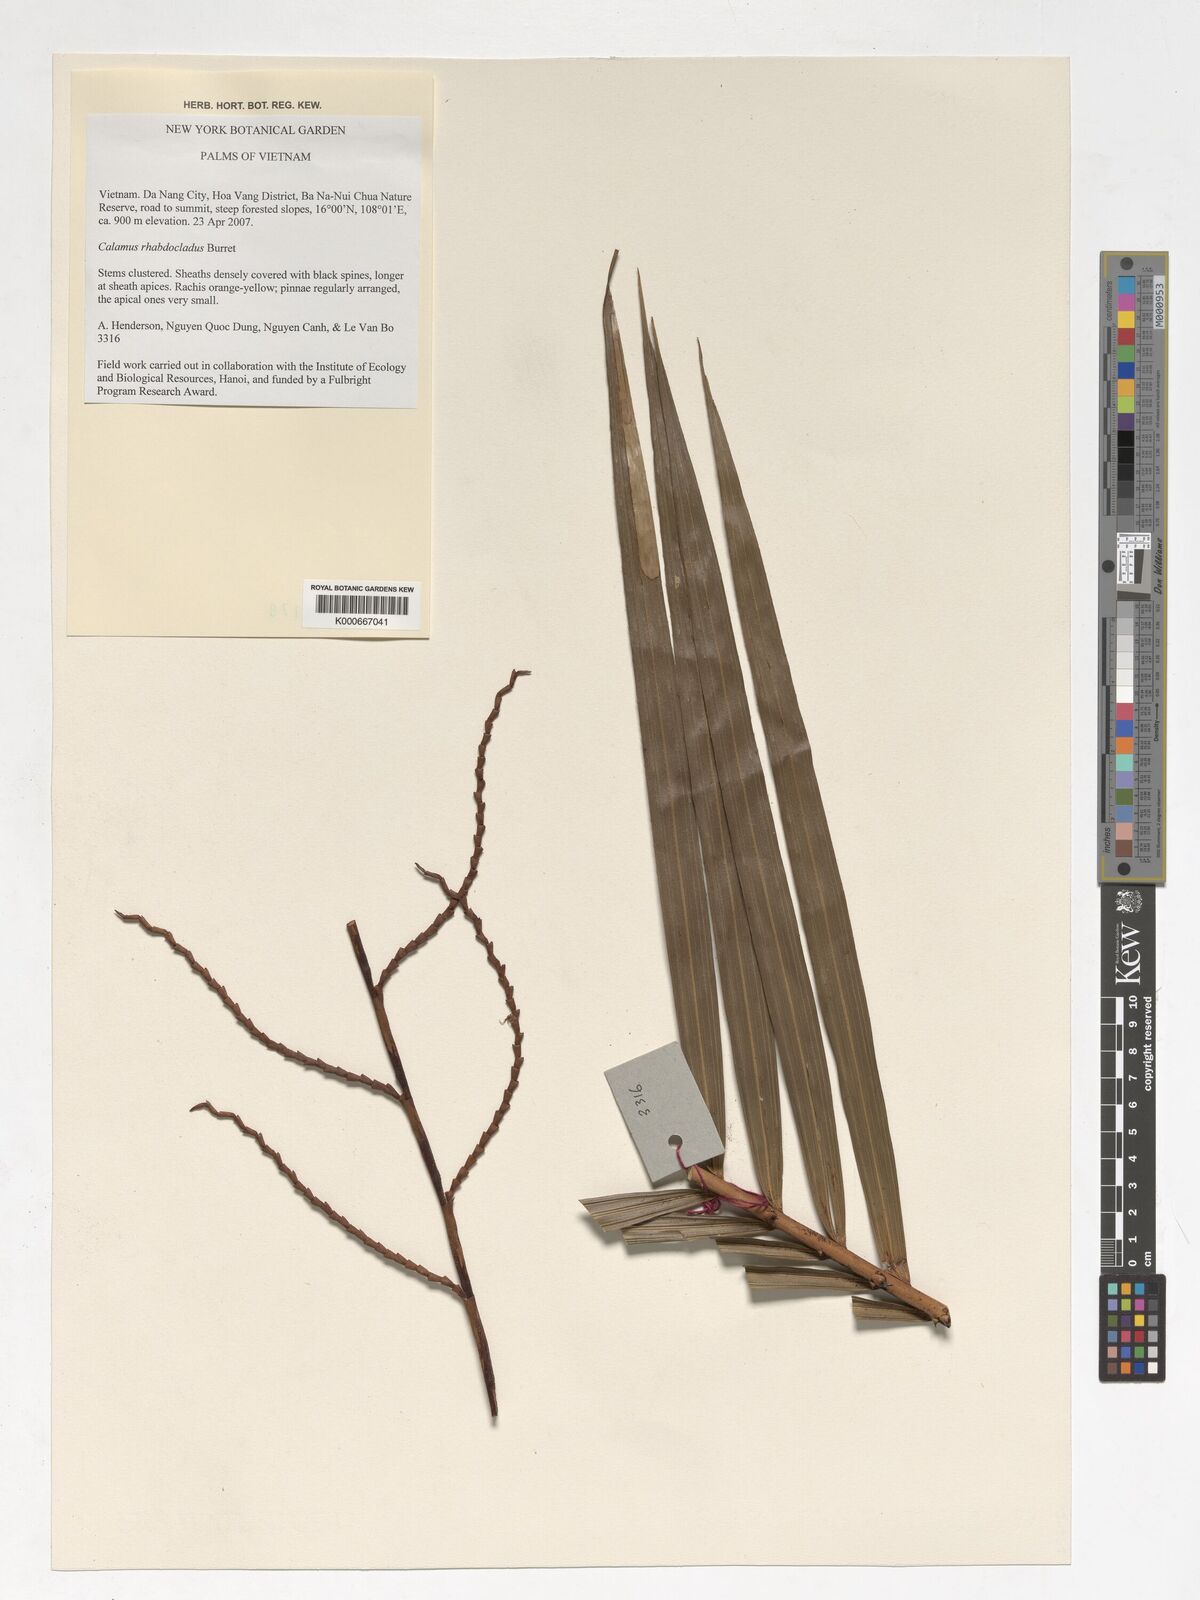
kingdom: Plantae
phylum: Tracheophyta
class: Liliopsida
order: Arecales
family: Arecaceae
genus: Calamus
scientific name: Calamus rhabdocladus
